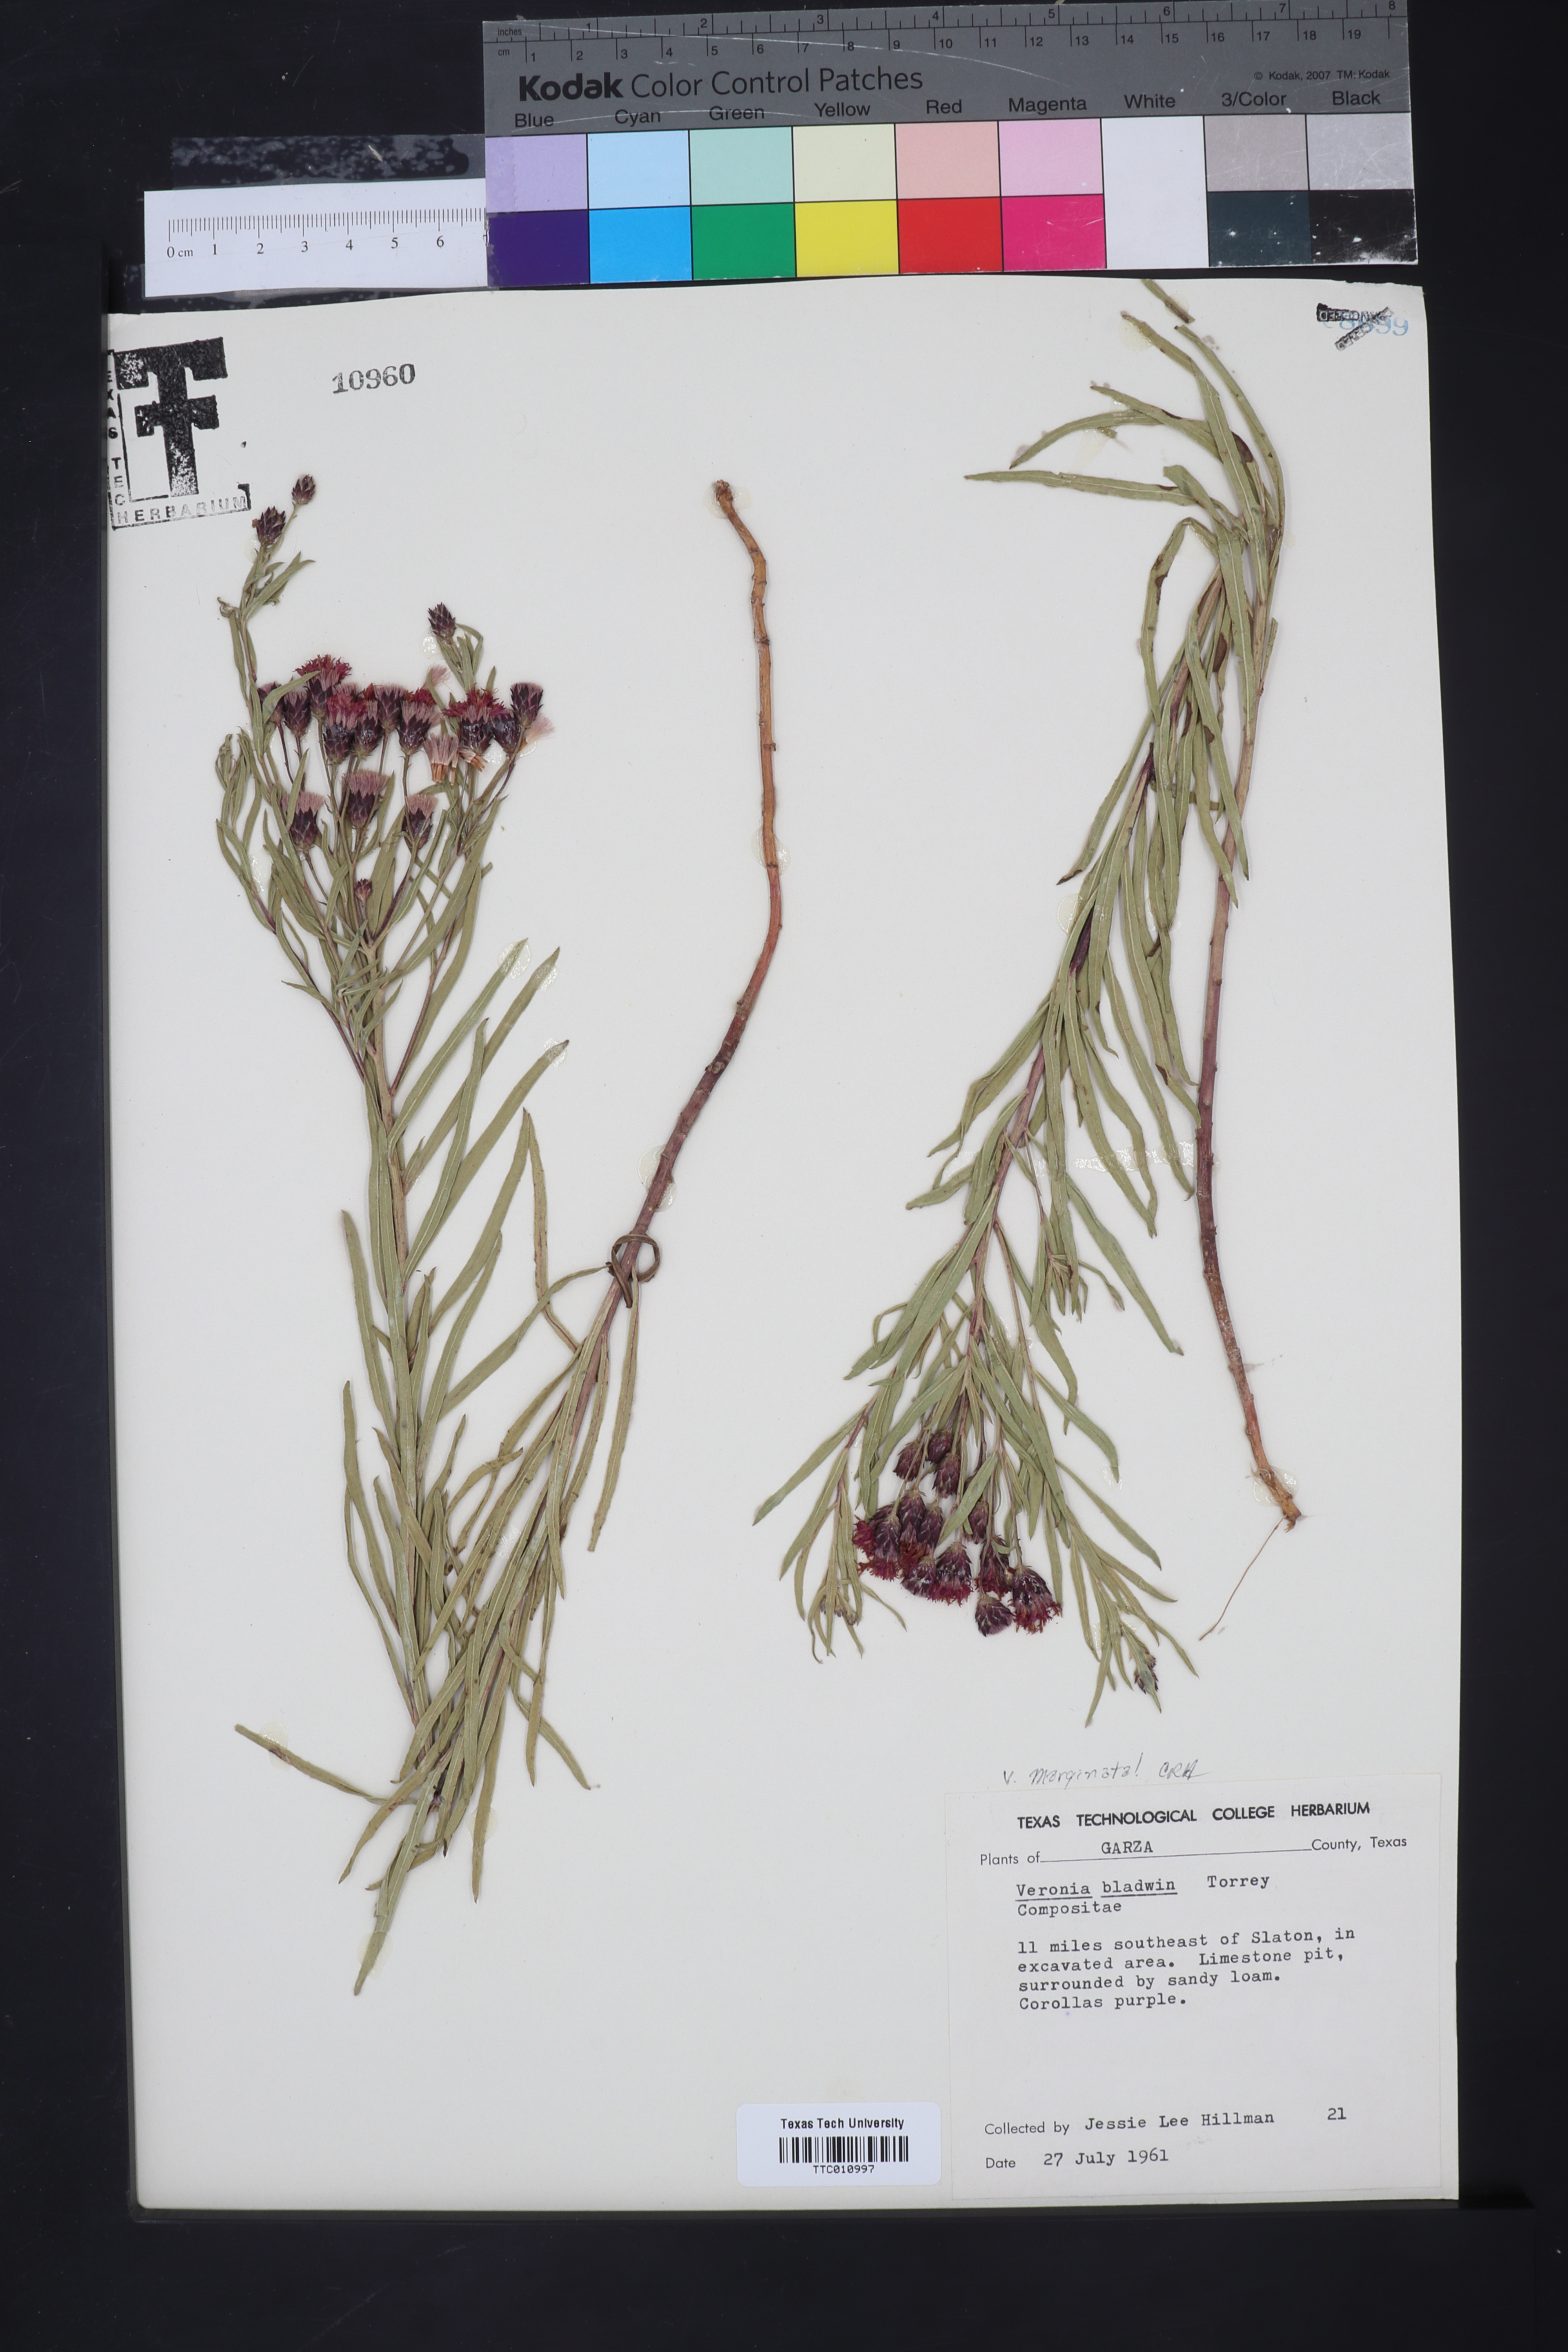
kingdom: Plantae
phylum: Tracheophyta
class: Magnoliopsida
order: Asterales
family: Asteraceae
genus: Vernonia
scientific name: Vernonia marginata
